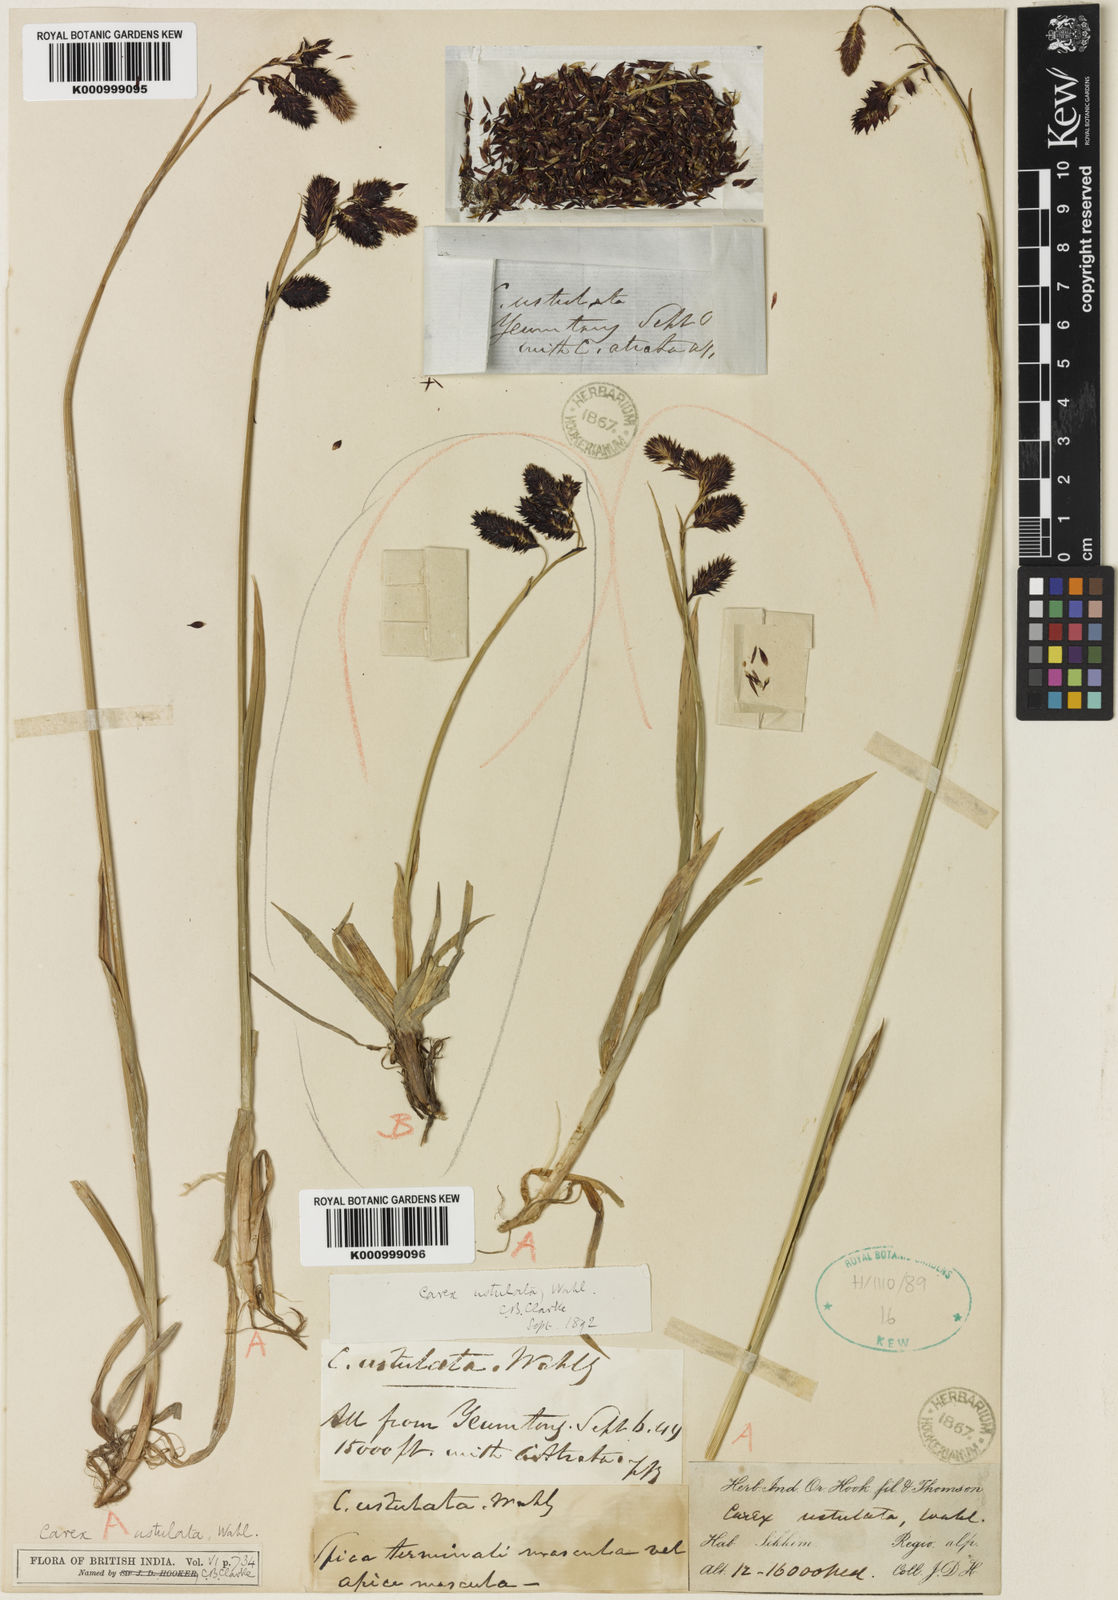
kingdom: Plantae
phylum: Tracheophyta
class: Liliopsida
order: Poales
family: Cyperaceae
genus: Carex
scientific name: Carex atrofusca
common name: Scorched alpine-sedge
